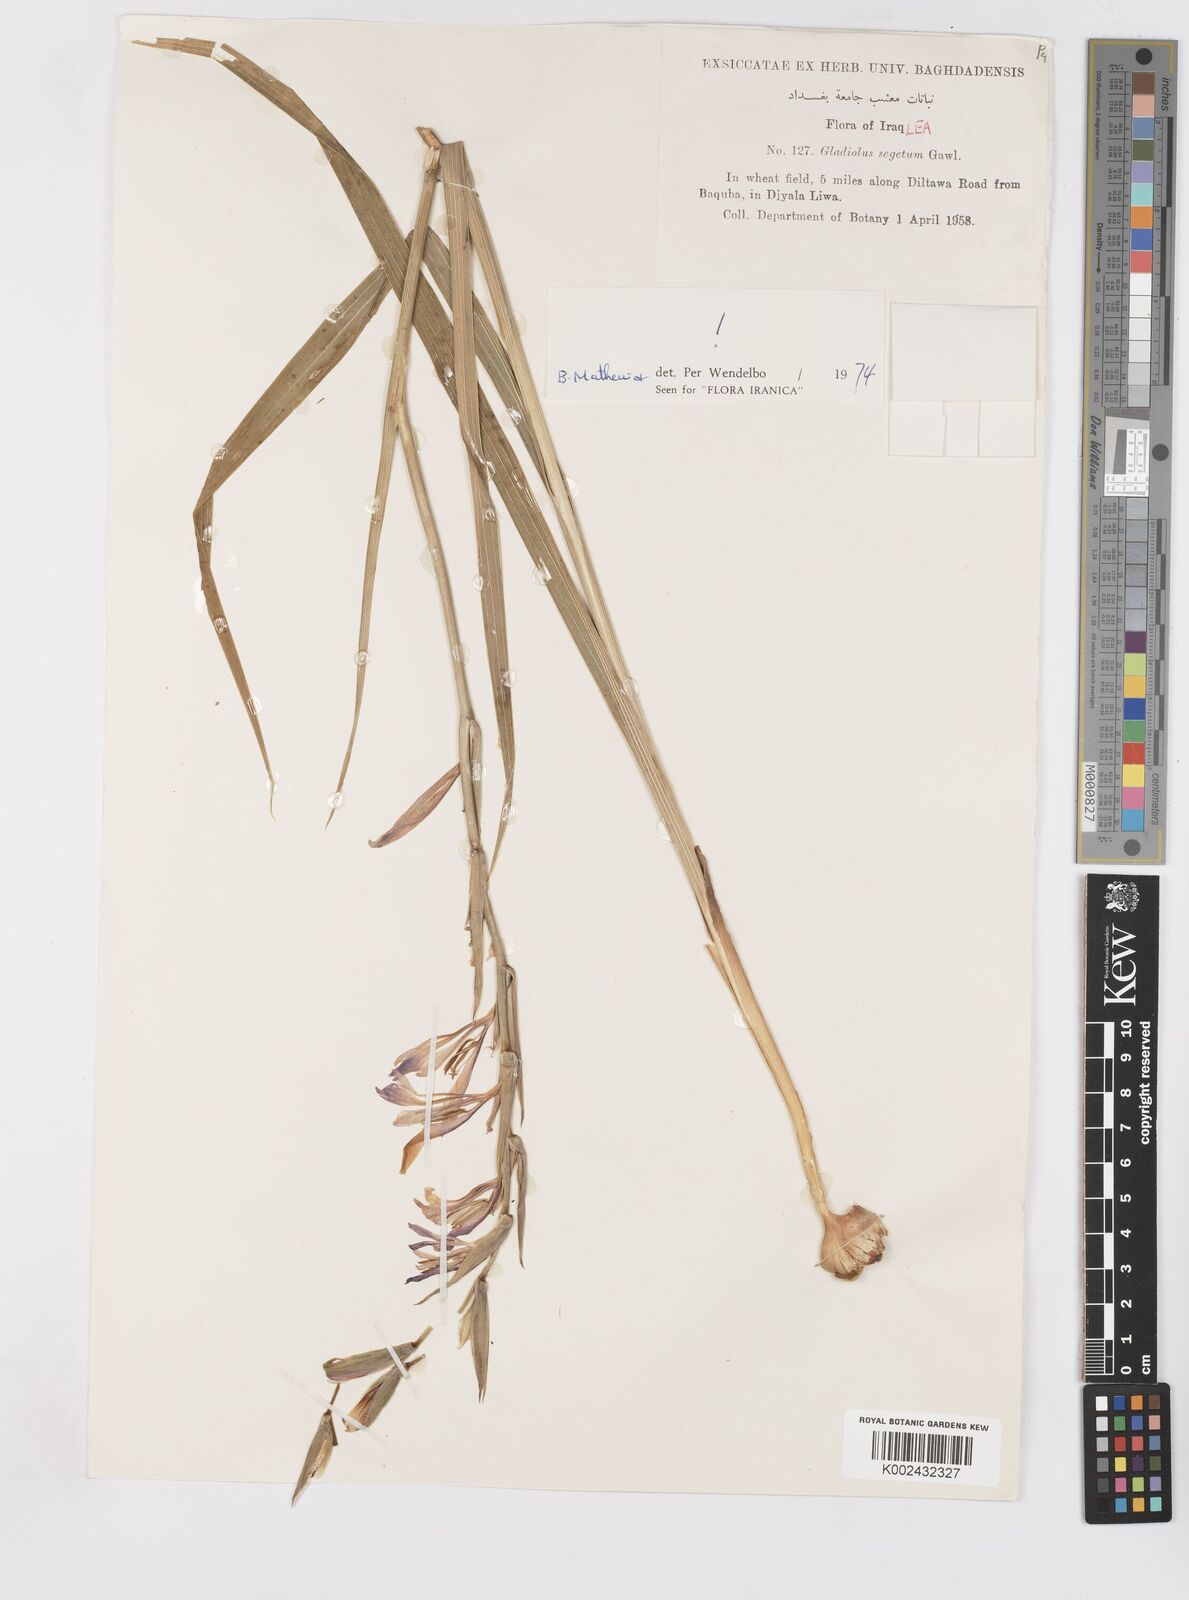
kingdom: Plantae
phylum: Tracheophyta
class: Liliopsida
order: Asparagales
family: Iridaceae
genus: Gladiolus
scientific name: Gladiolus italicus
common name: Field gladiolus
